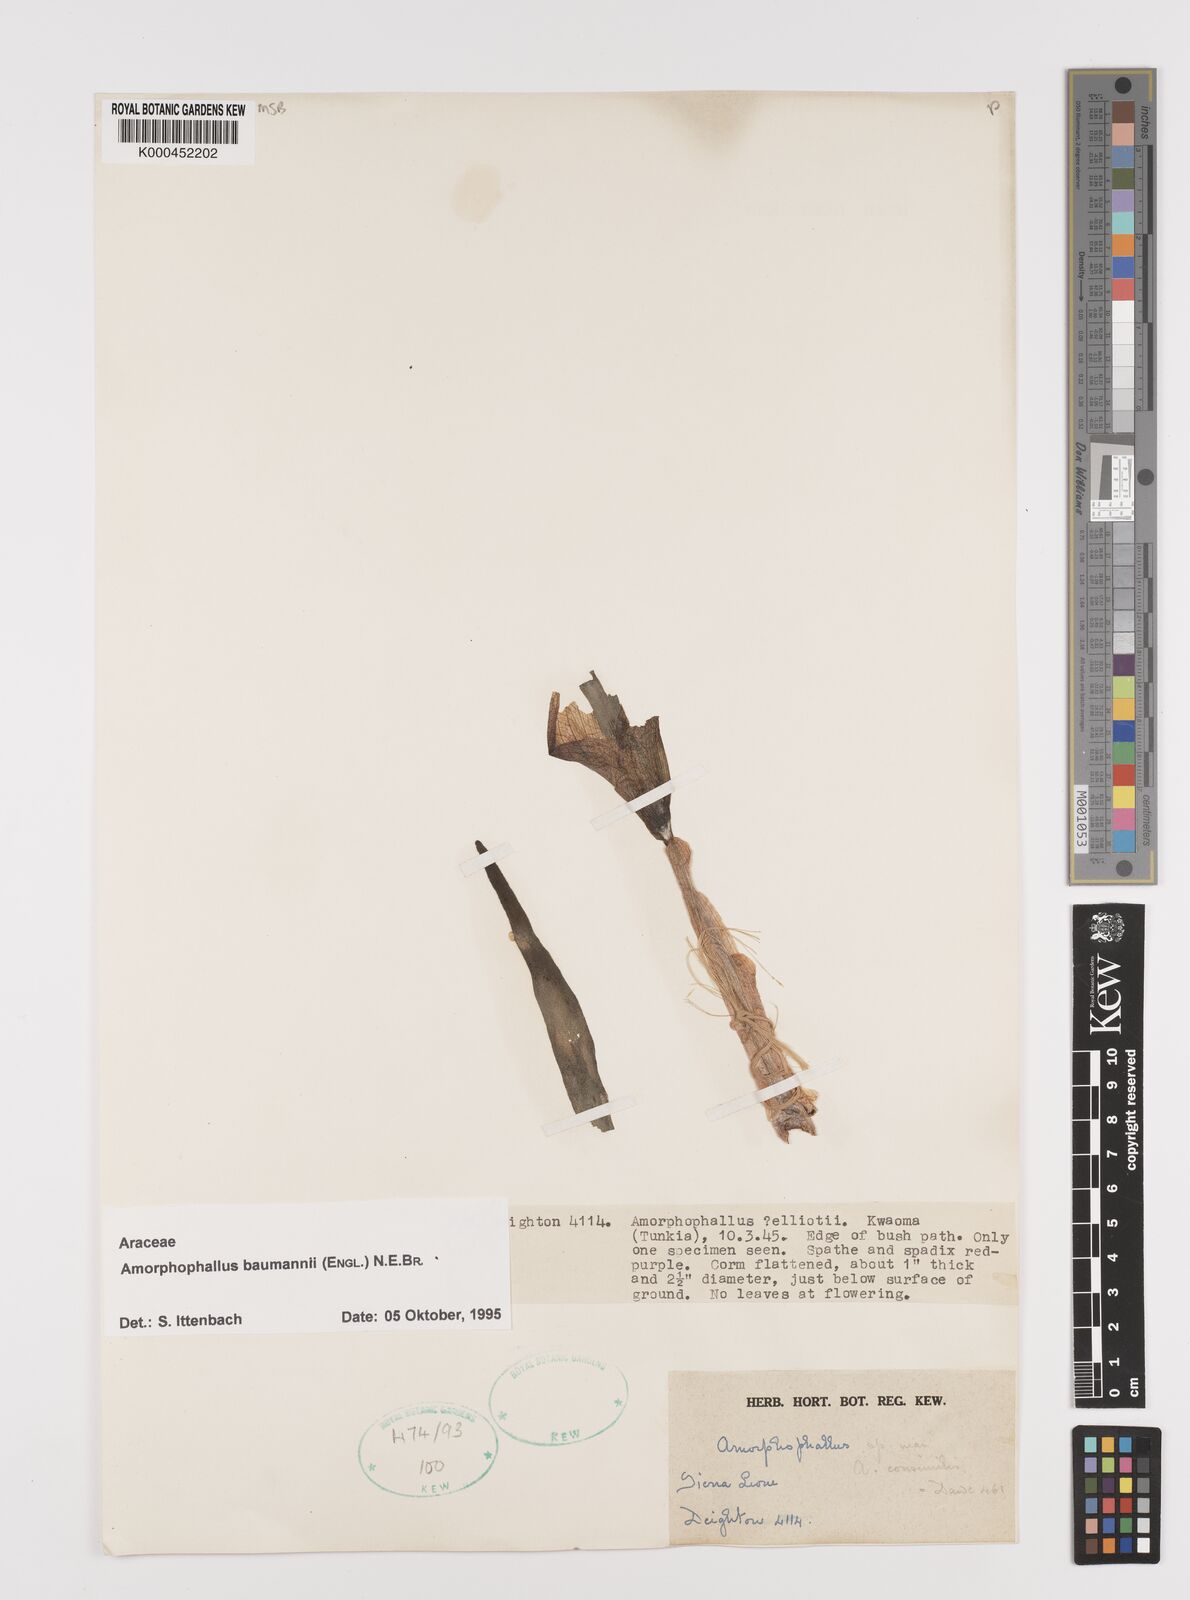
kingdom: Plantae
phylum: Tracheophyta
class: Liliopsida
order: Alismatales
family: Araceae
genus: Amorphophallus
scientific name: Amorphophallus baumannii
